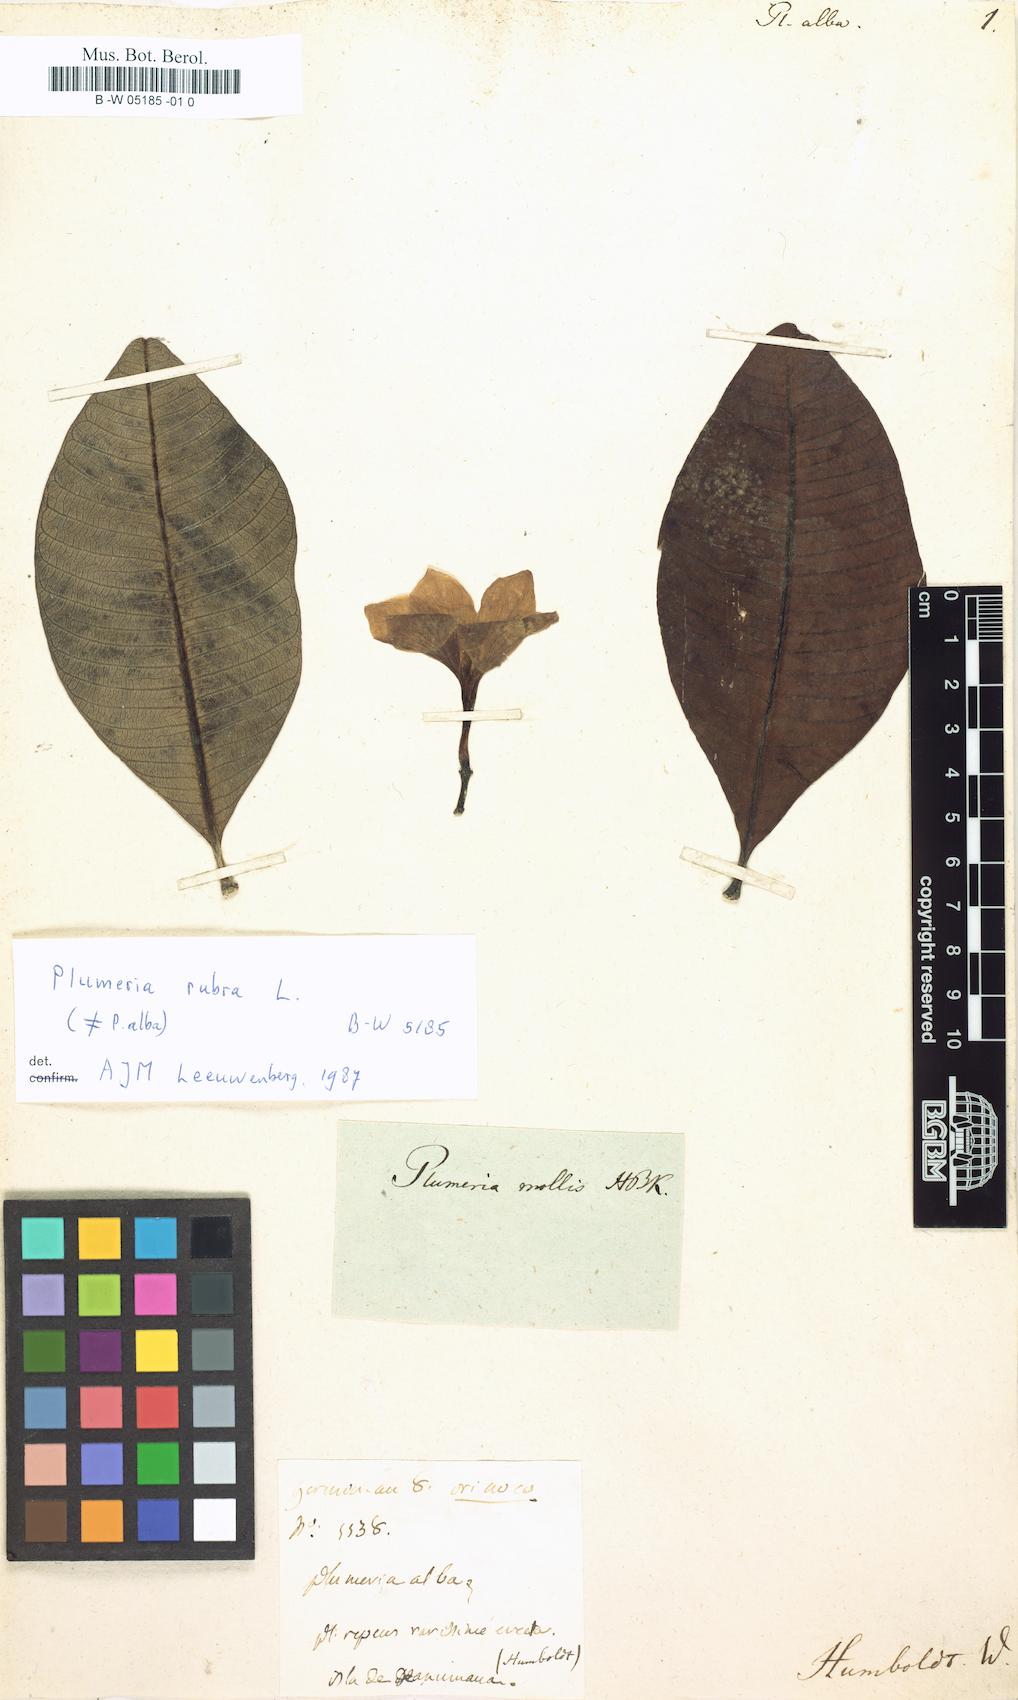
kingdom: Plantae
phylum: Tracheophyta
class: Magnoliopsida
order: Gentianales
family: Apocynaceae
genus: Plumeria
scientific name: Plumeria alba
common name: Wild frangipani
